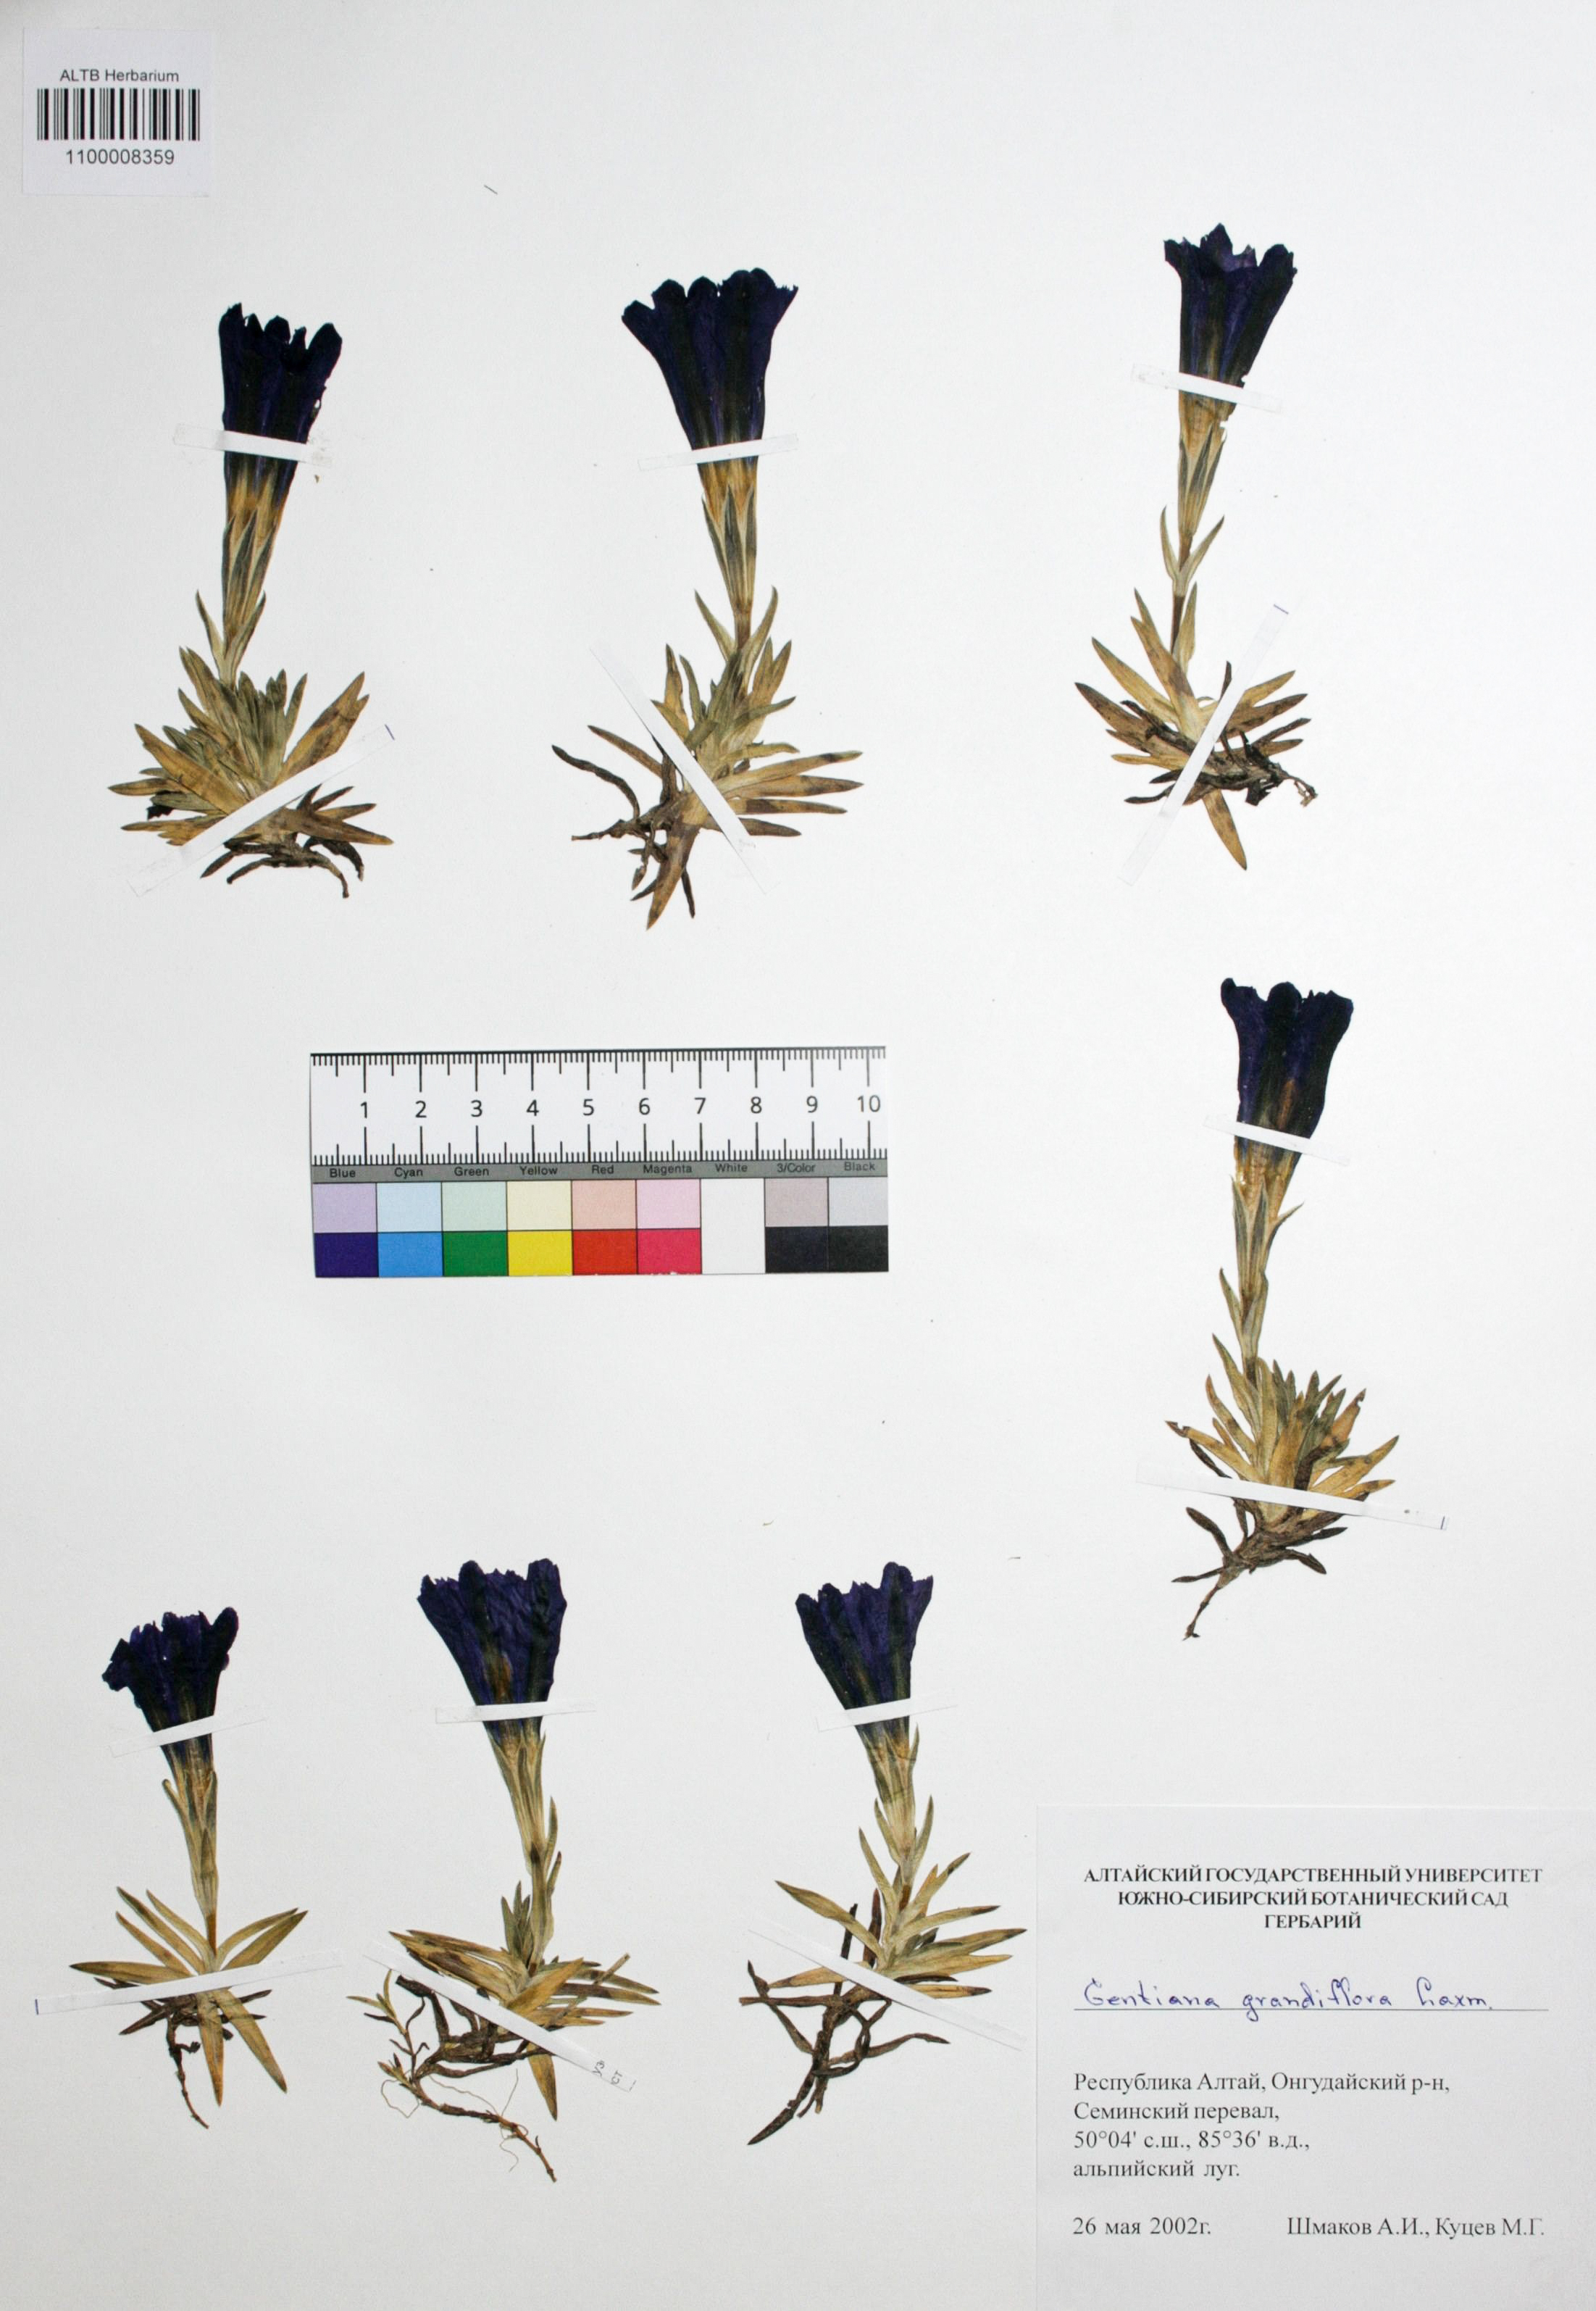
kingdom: Plantae
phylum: Tracheophyta
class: Magnoliopsida
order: Gentianales
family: Gentianaceae
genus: Gentiana
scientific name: Gentiana grandiflora
